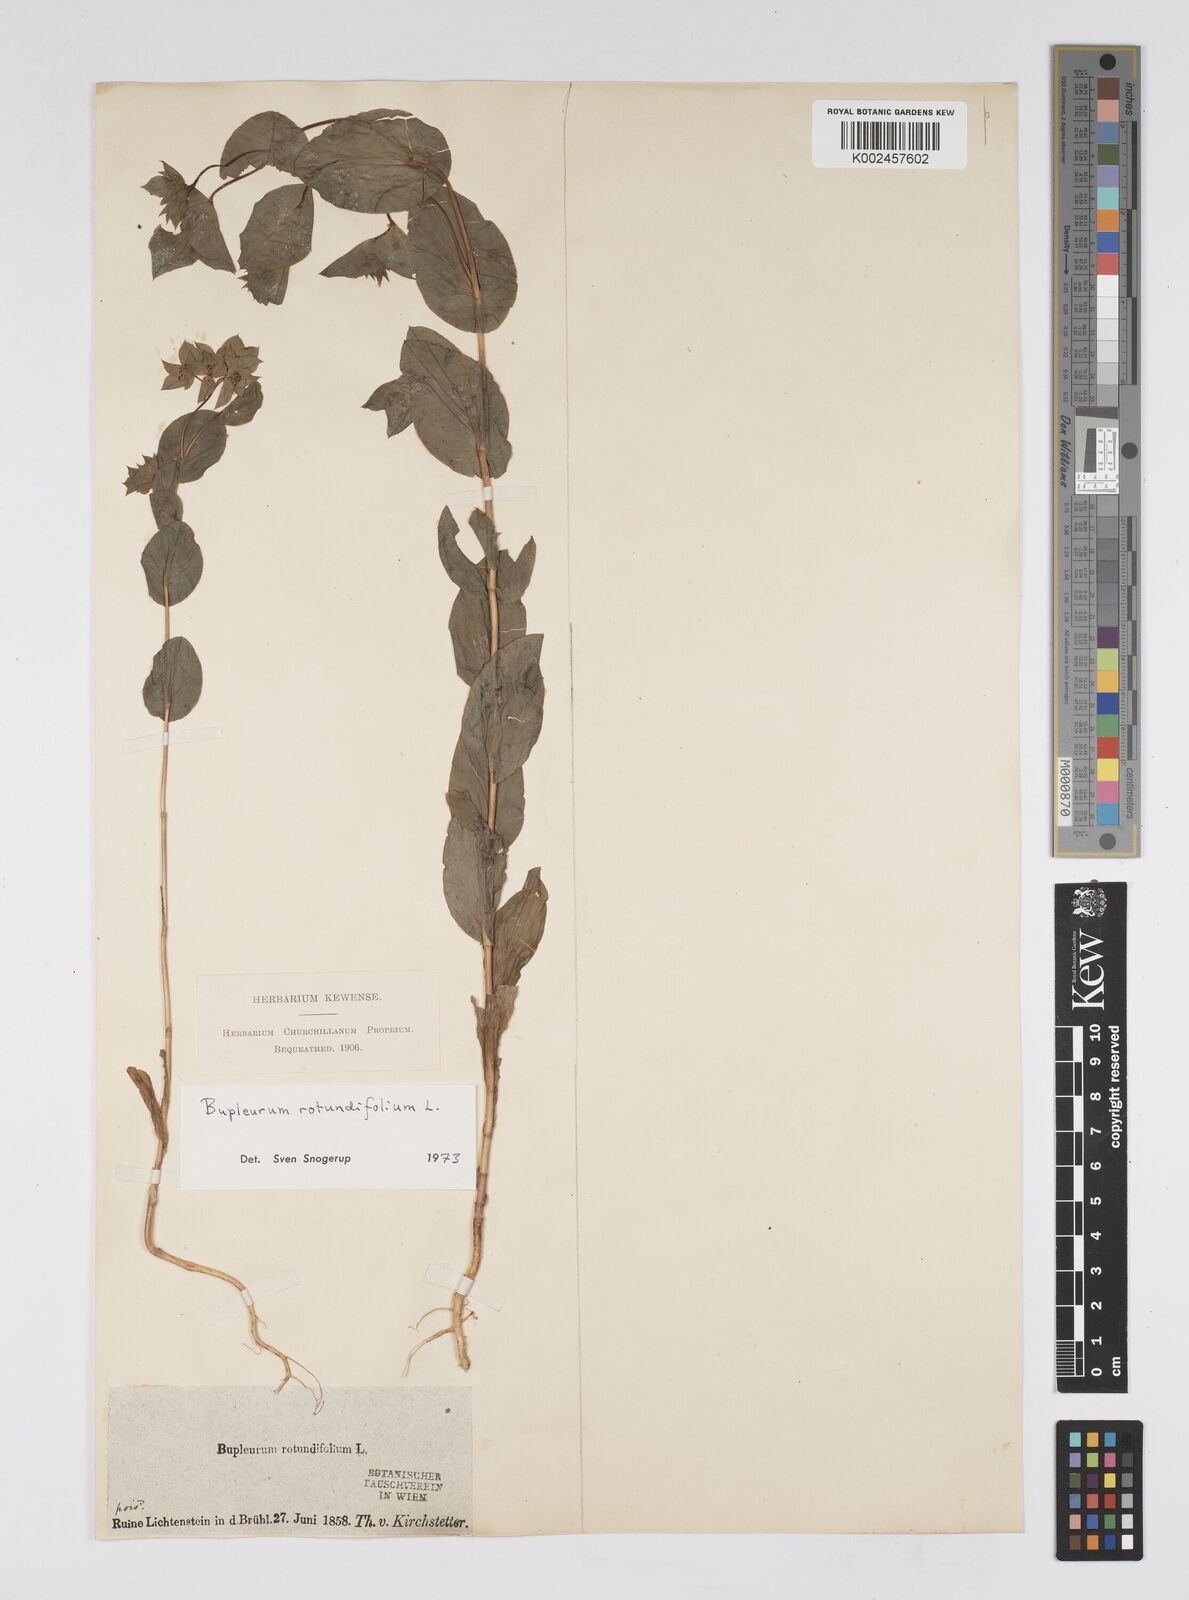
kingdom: Plantae
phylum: Tracheophyta
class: Magnoliopsida
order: Apiales
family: Apiaceae
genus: Bupleurum
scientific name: Bupleurum rotundifolium
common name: Thorow-wax
